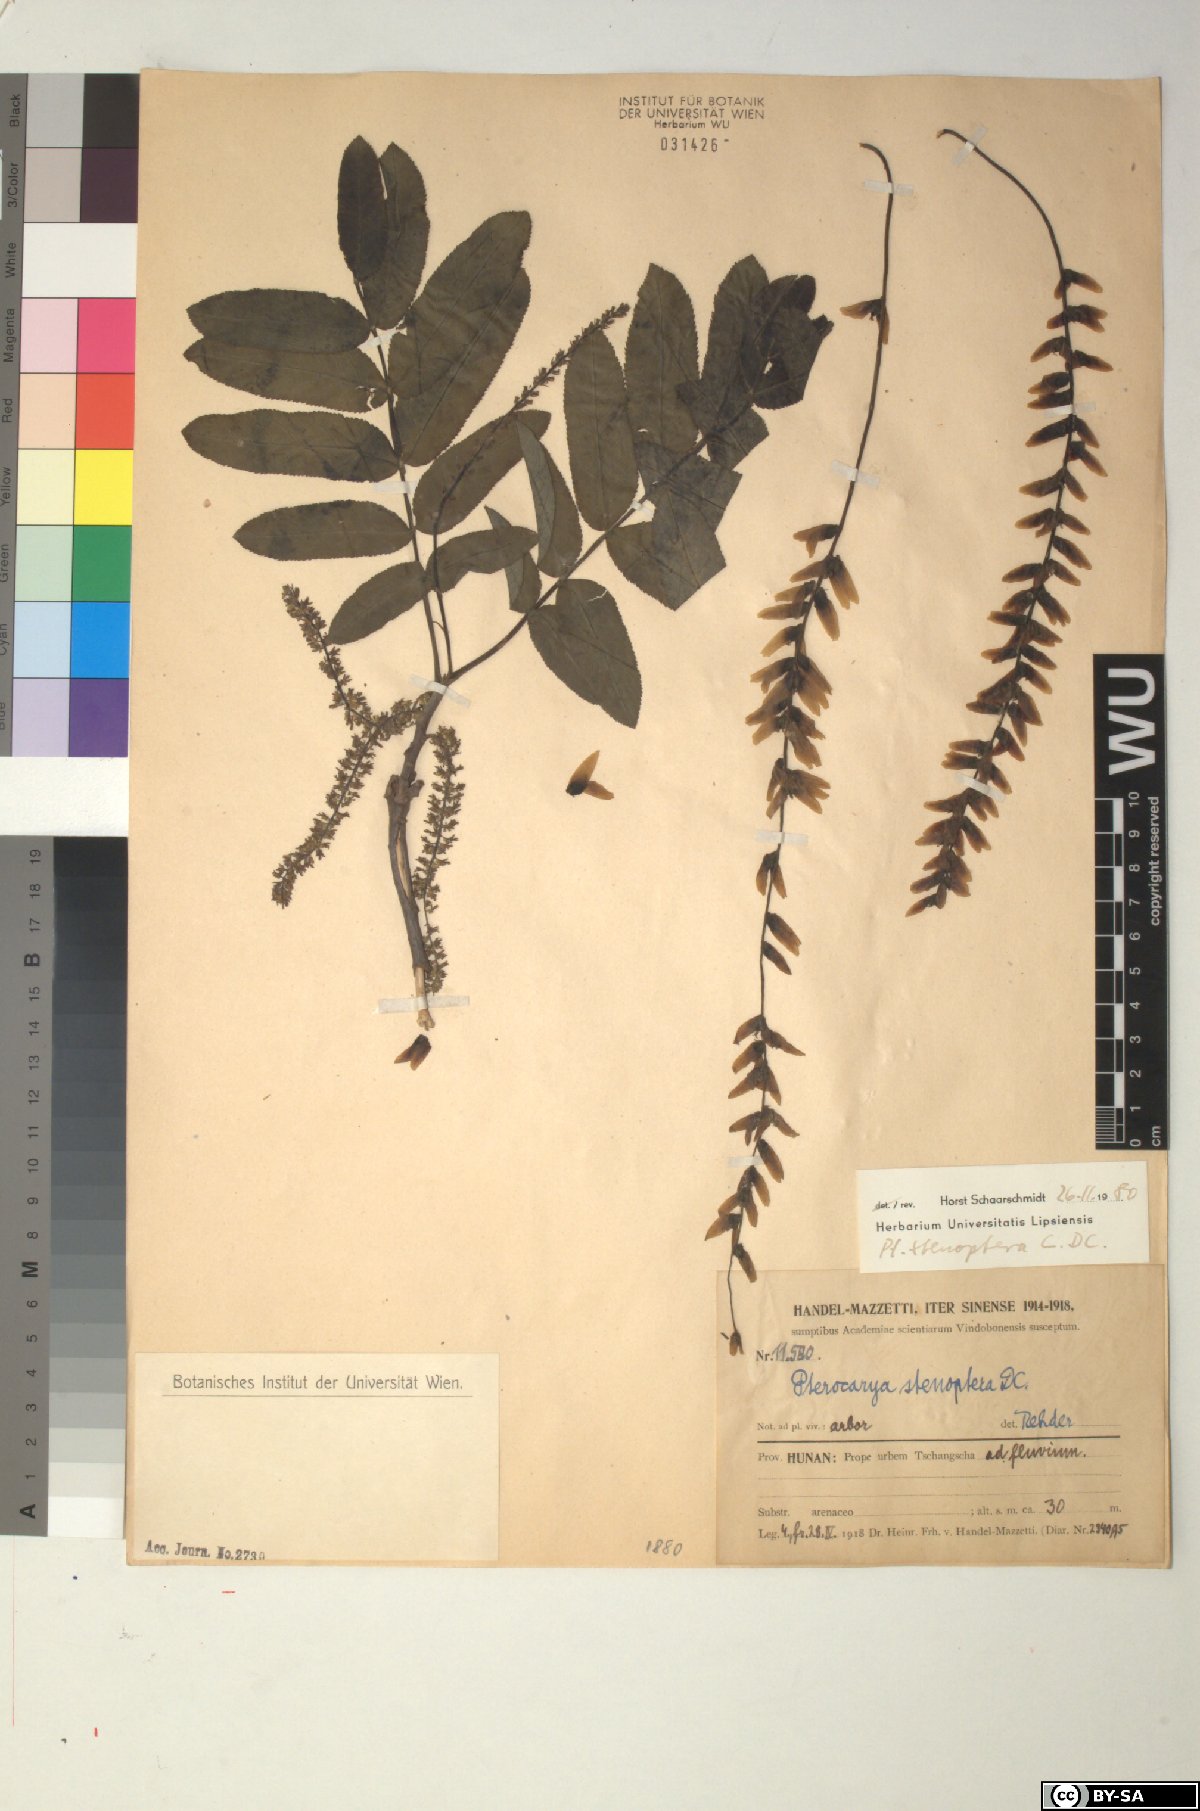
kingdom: Plantae
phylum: Tracheophyta
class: Magnoliopsida
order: Fagales
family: Juglandaceae
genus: Pterocarya
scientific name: Pterocarya stenoptera
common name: Chinese wingnut
